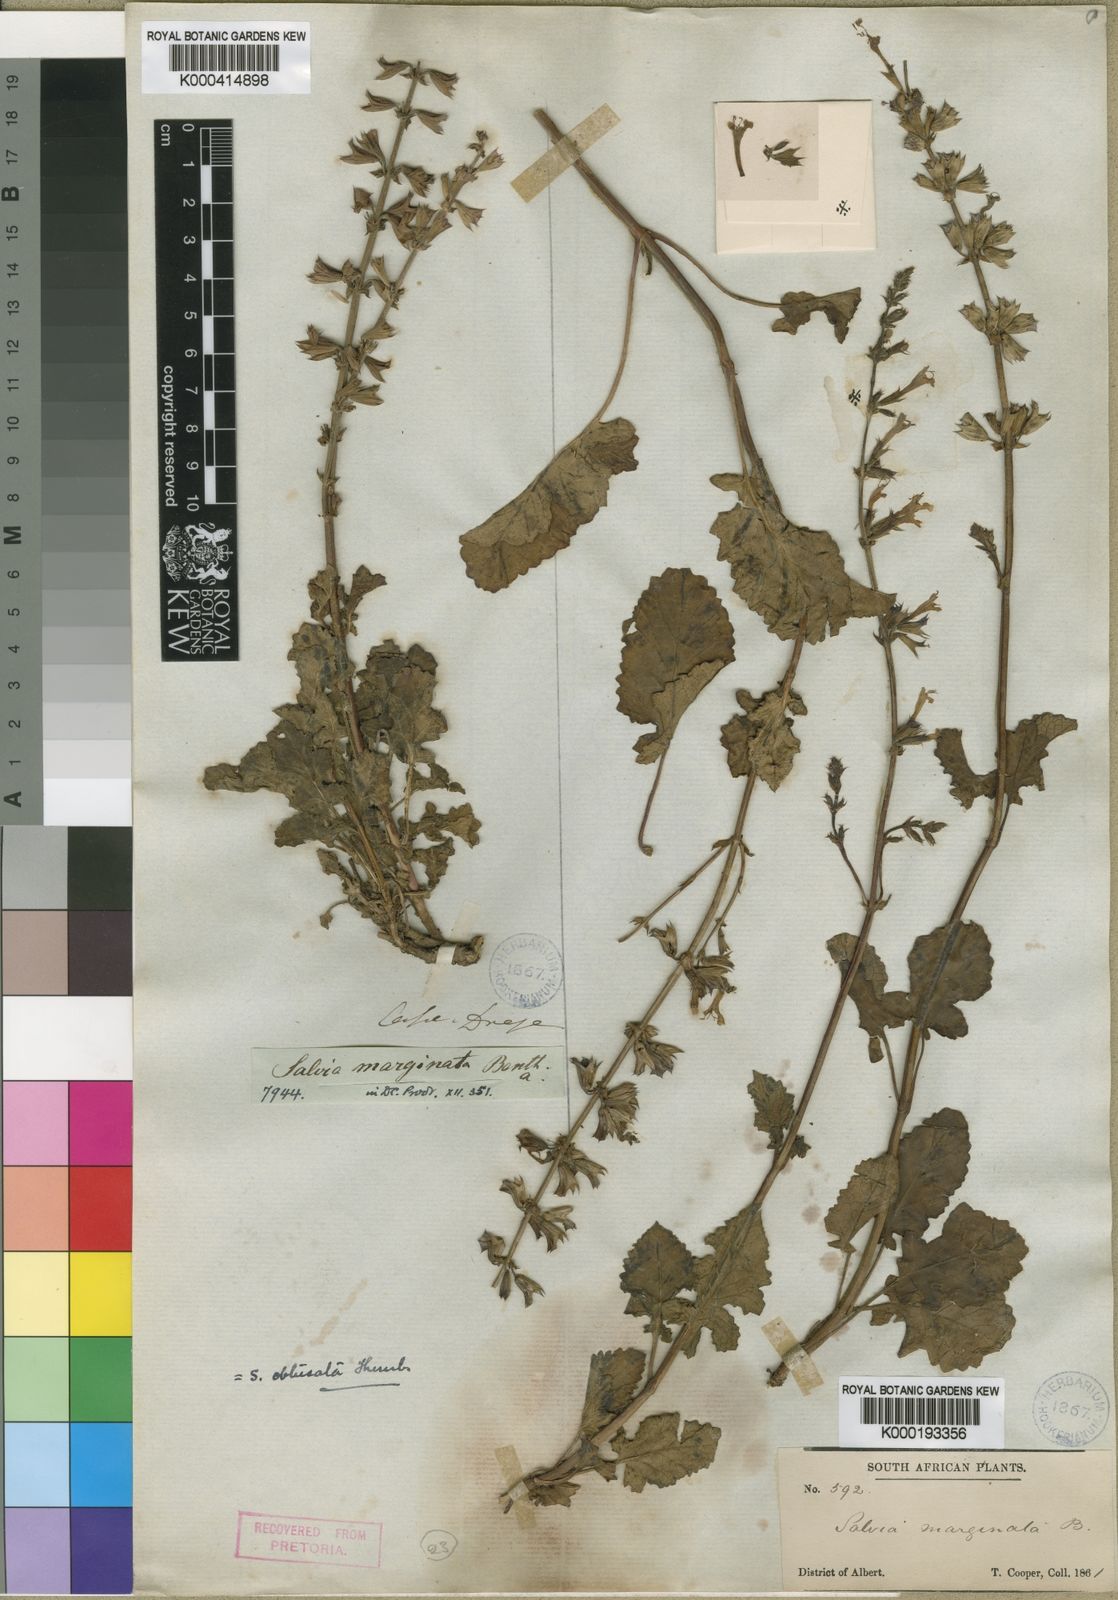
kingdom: Plantae
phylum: Tracheophyta
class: Magnoliopsida
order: Lamiales
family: Lamiaceae
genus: Salvia
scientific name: Salvia obtusata
